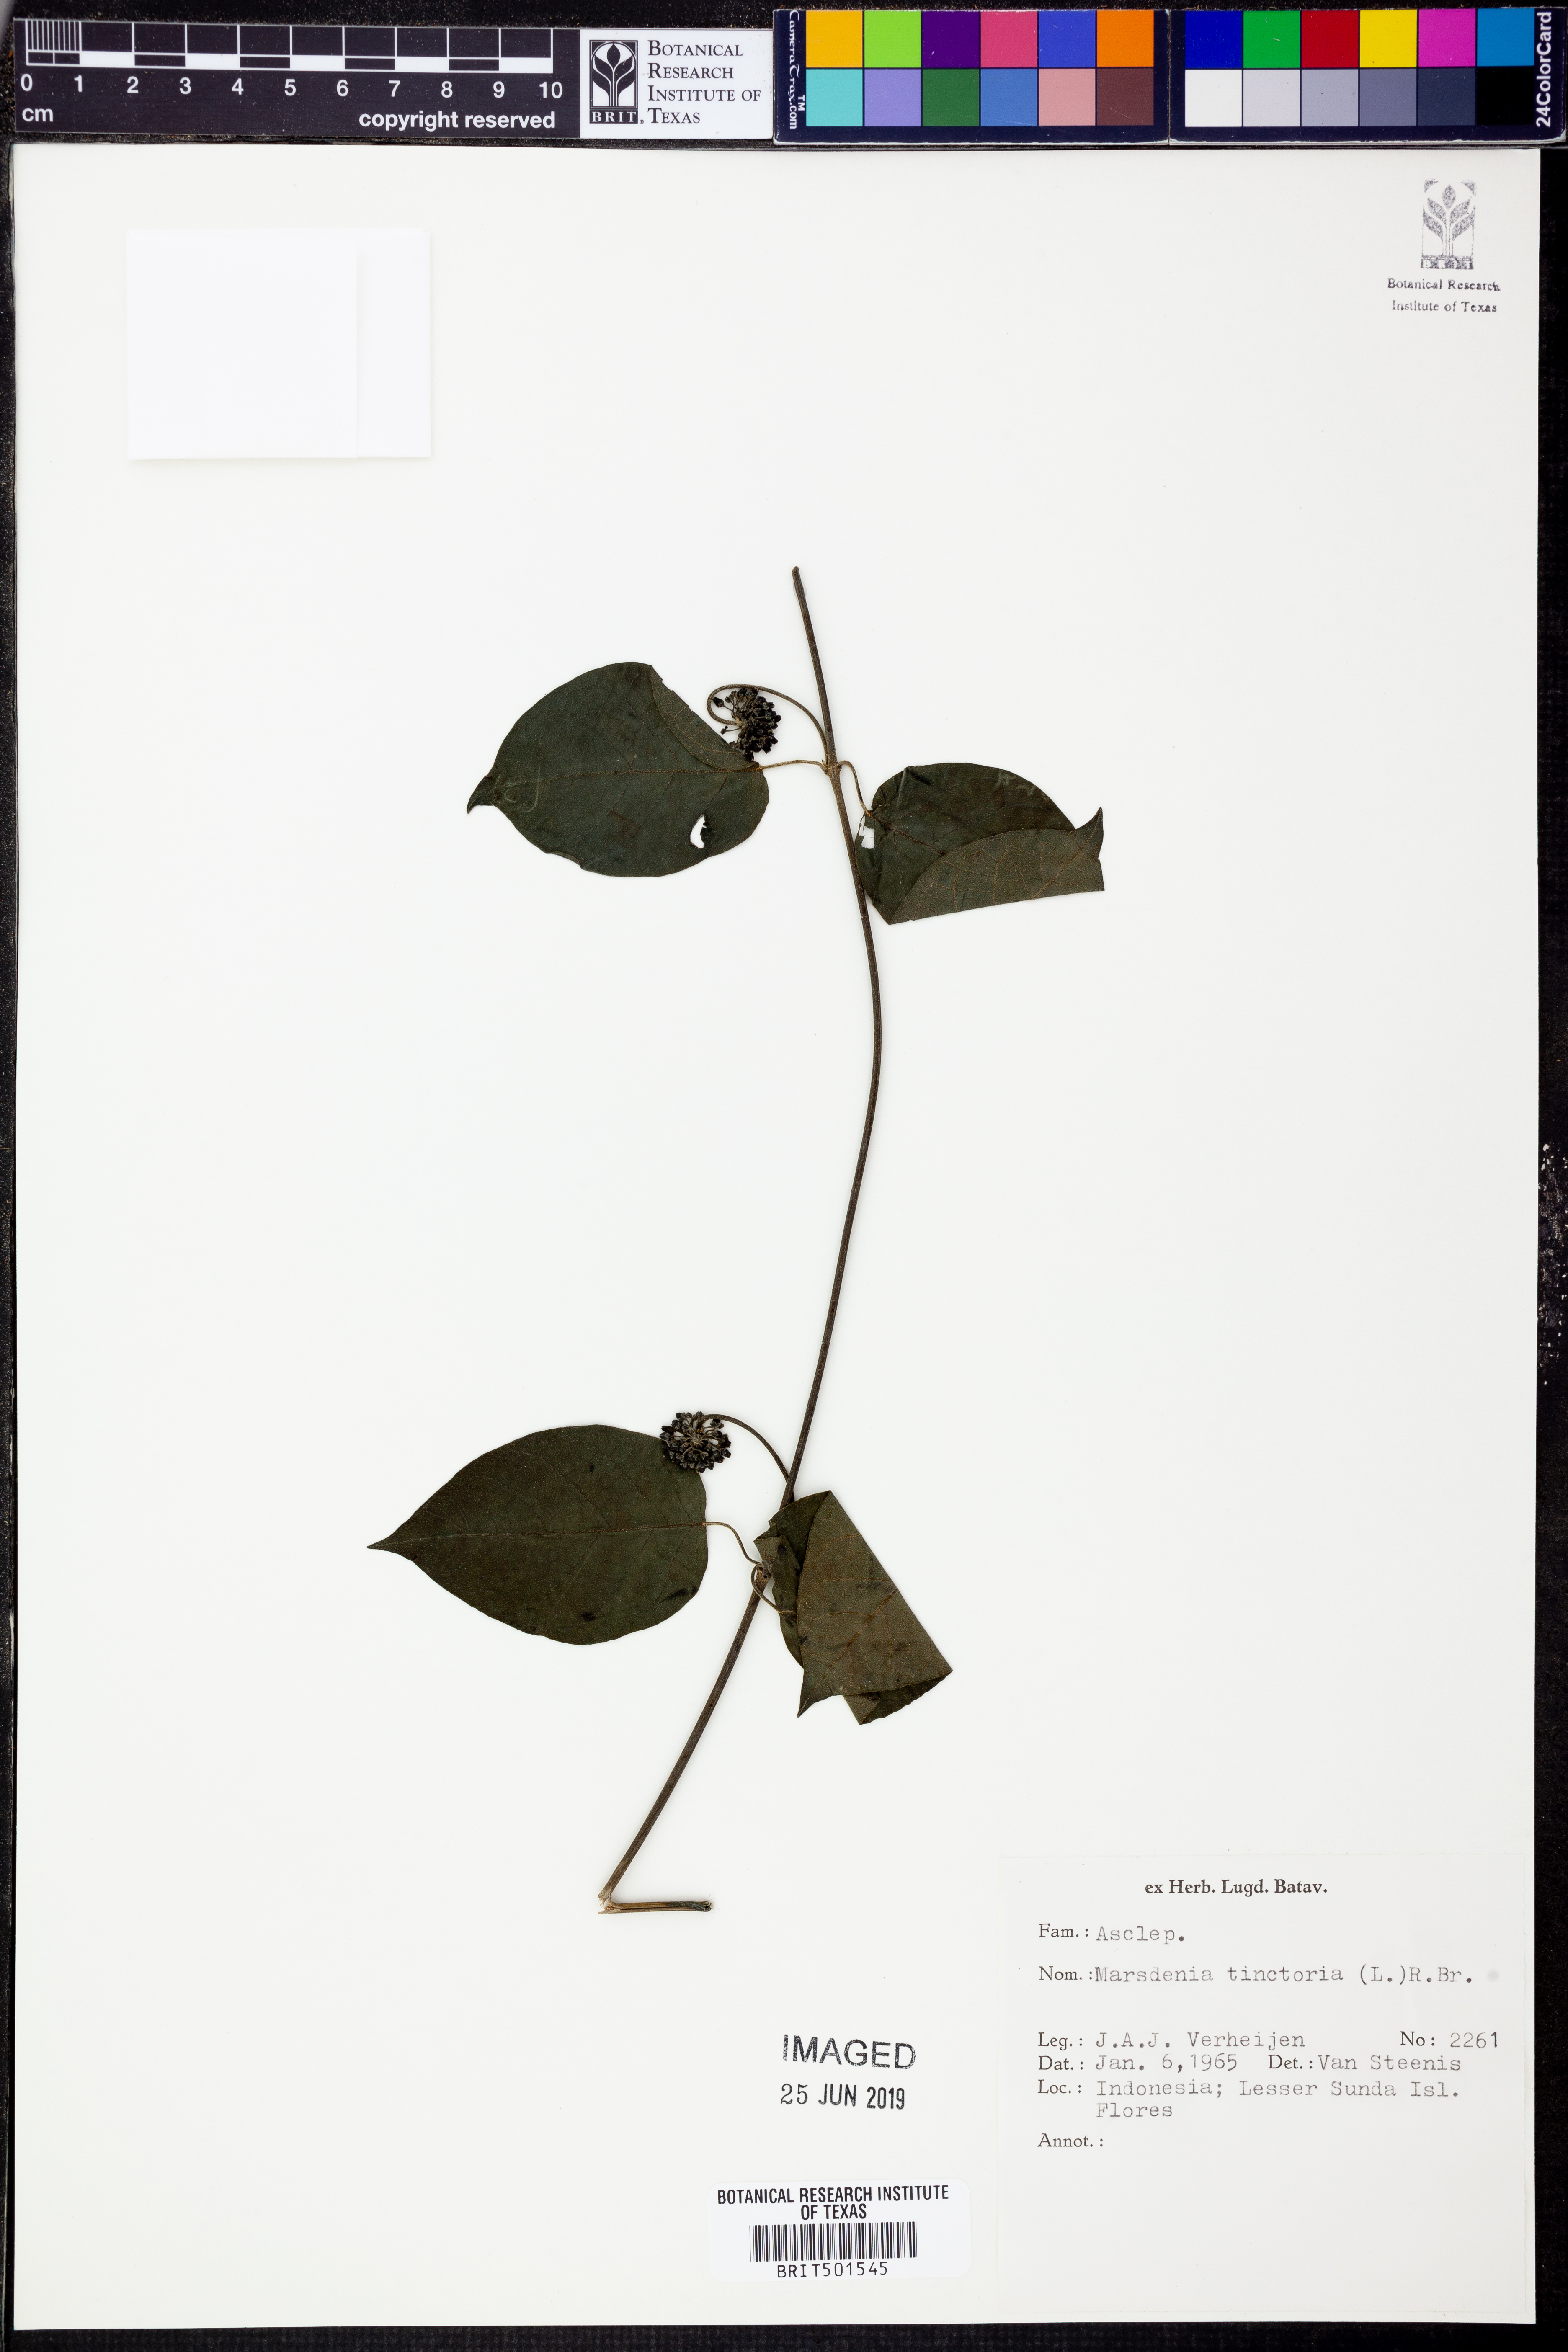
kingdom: Plantae
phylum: Tracheophyta
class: Magnoliopsida
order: Gentianales
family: Apocynaceae
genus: Marsdenia
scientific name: Marsdenia tinctoria
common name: Climbing-indigo
